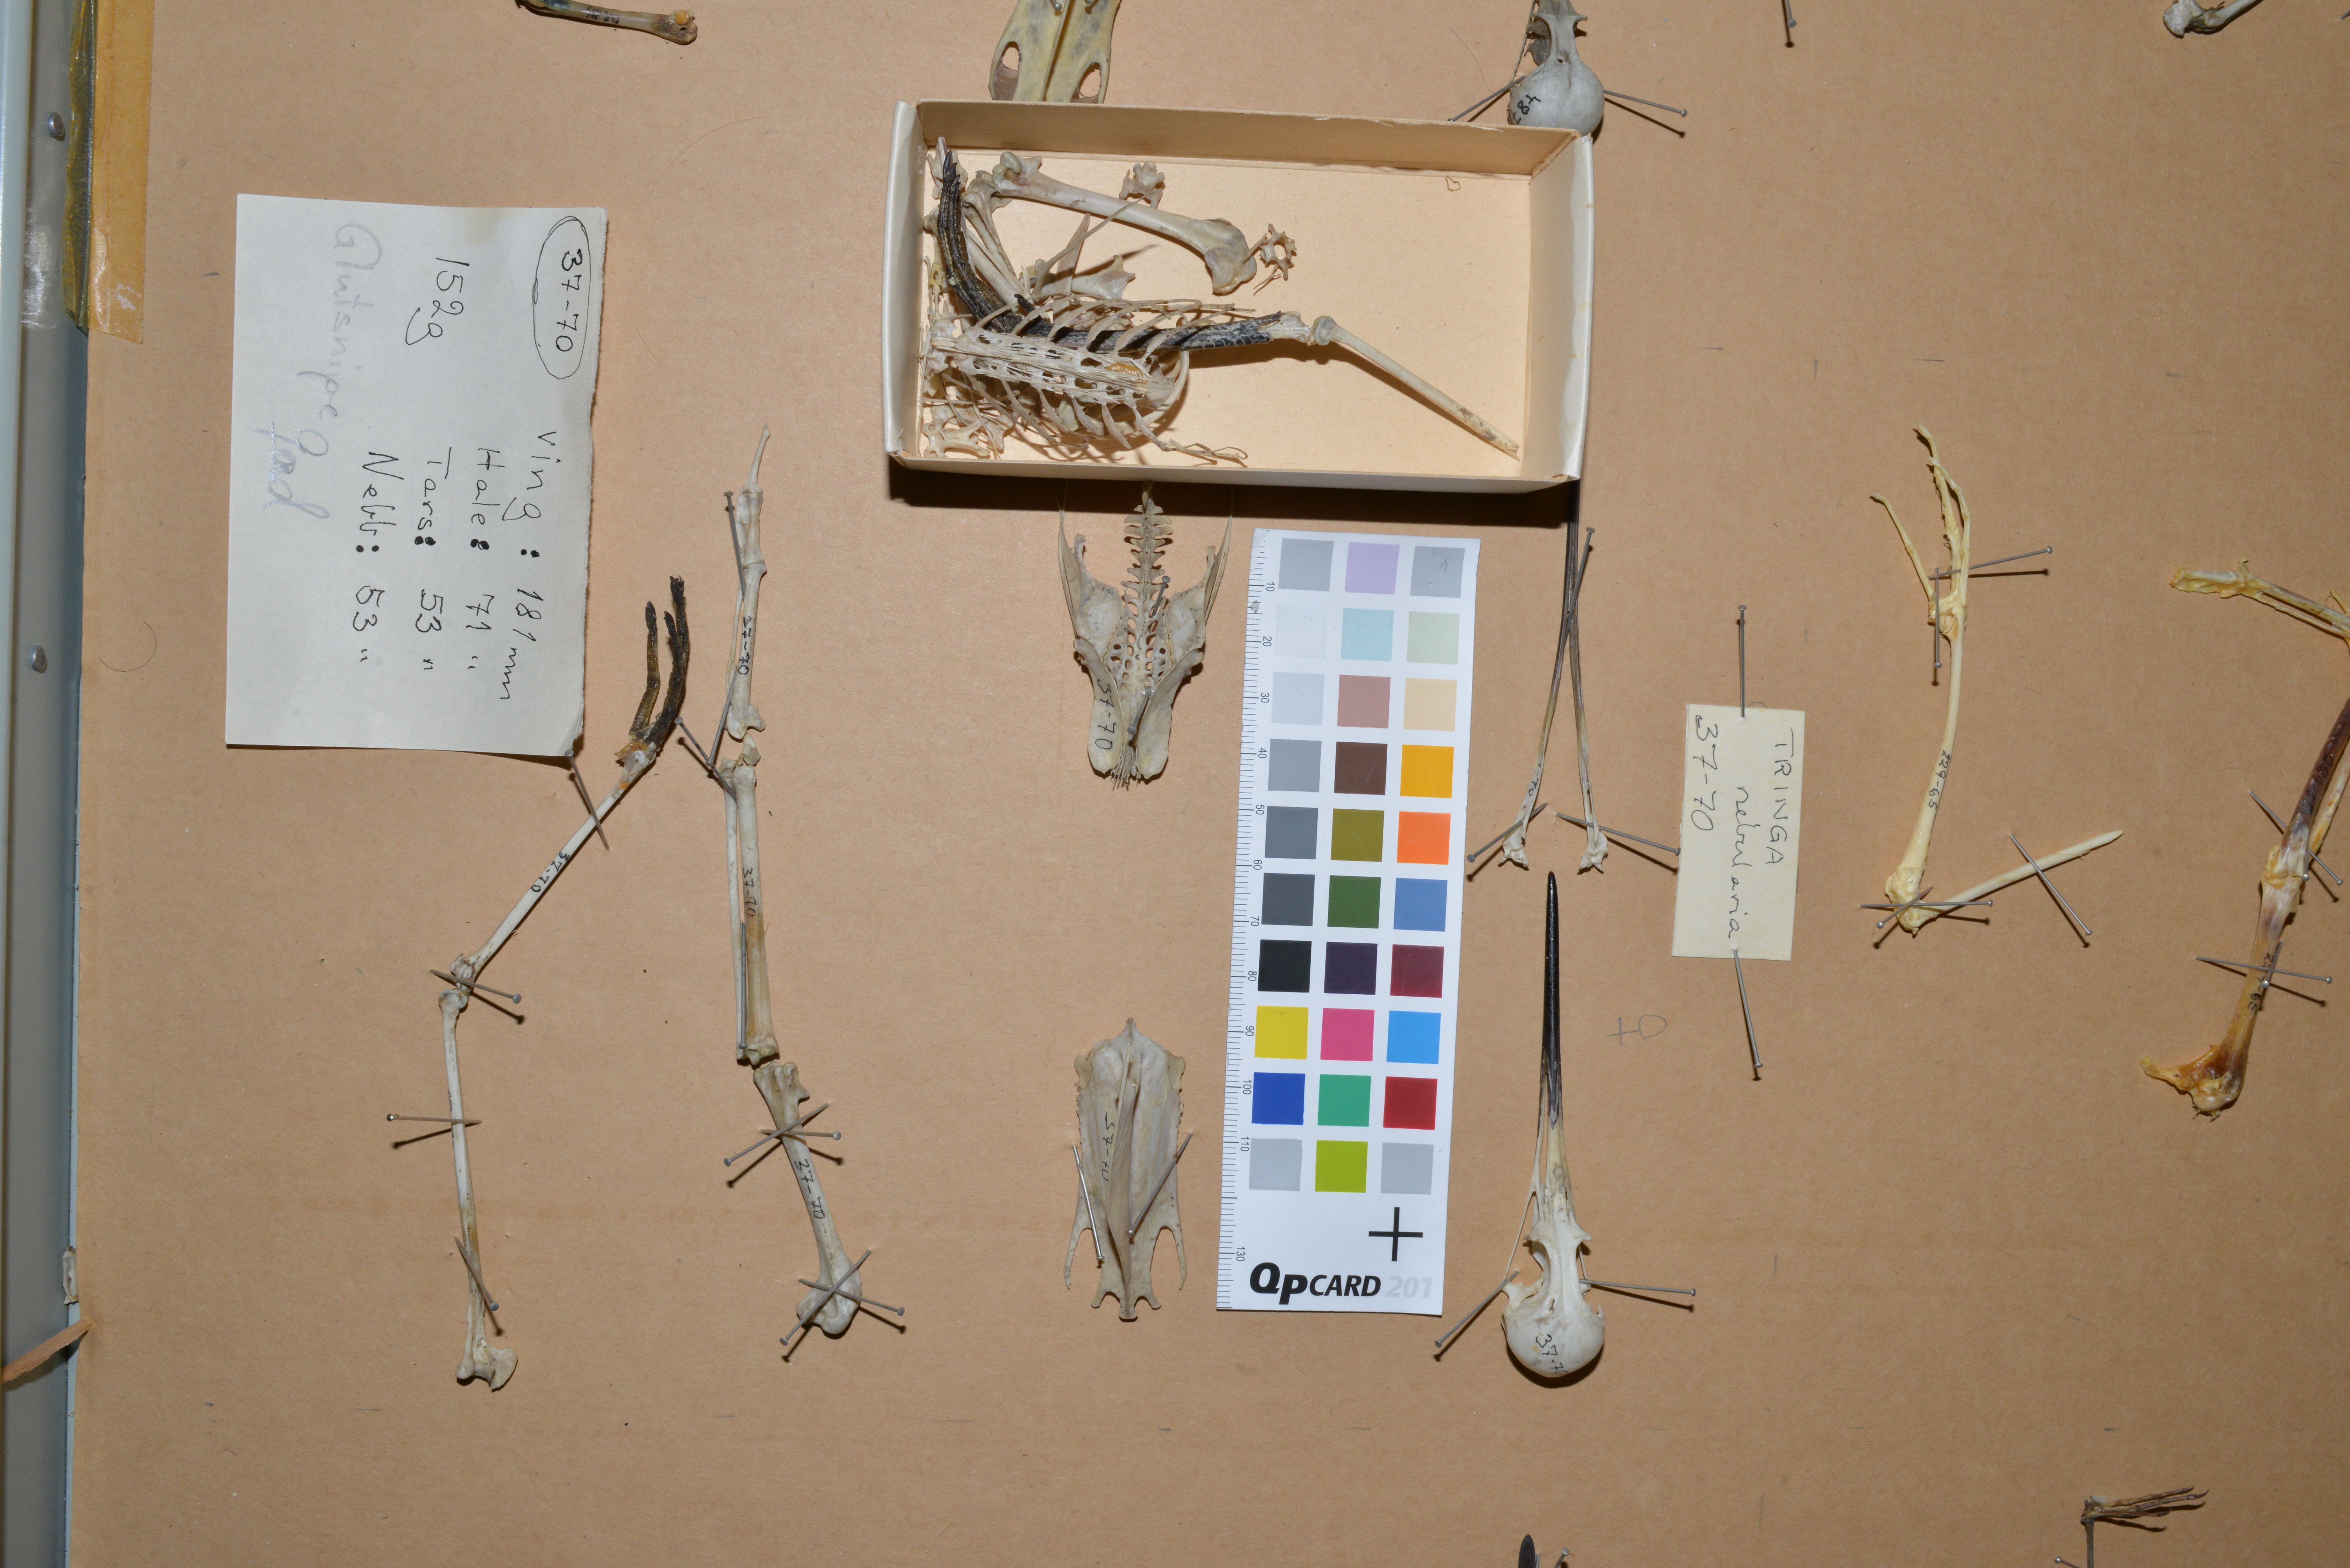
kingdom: Animalia
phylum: Chordata
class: Aves
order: Charadriiformes
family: Scolopacidae
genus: Tringa
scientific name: Tringa nebularia
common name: Common greenshank
